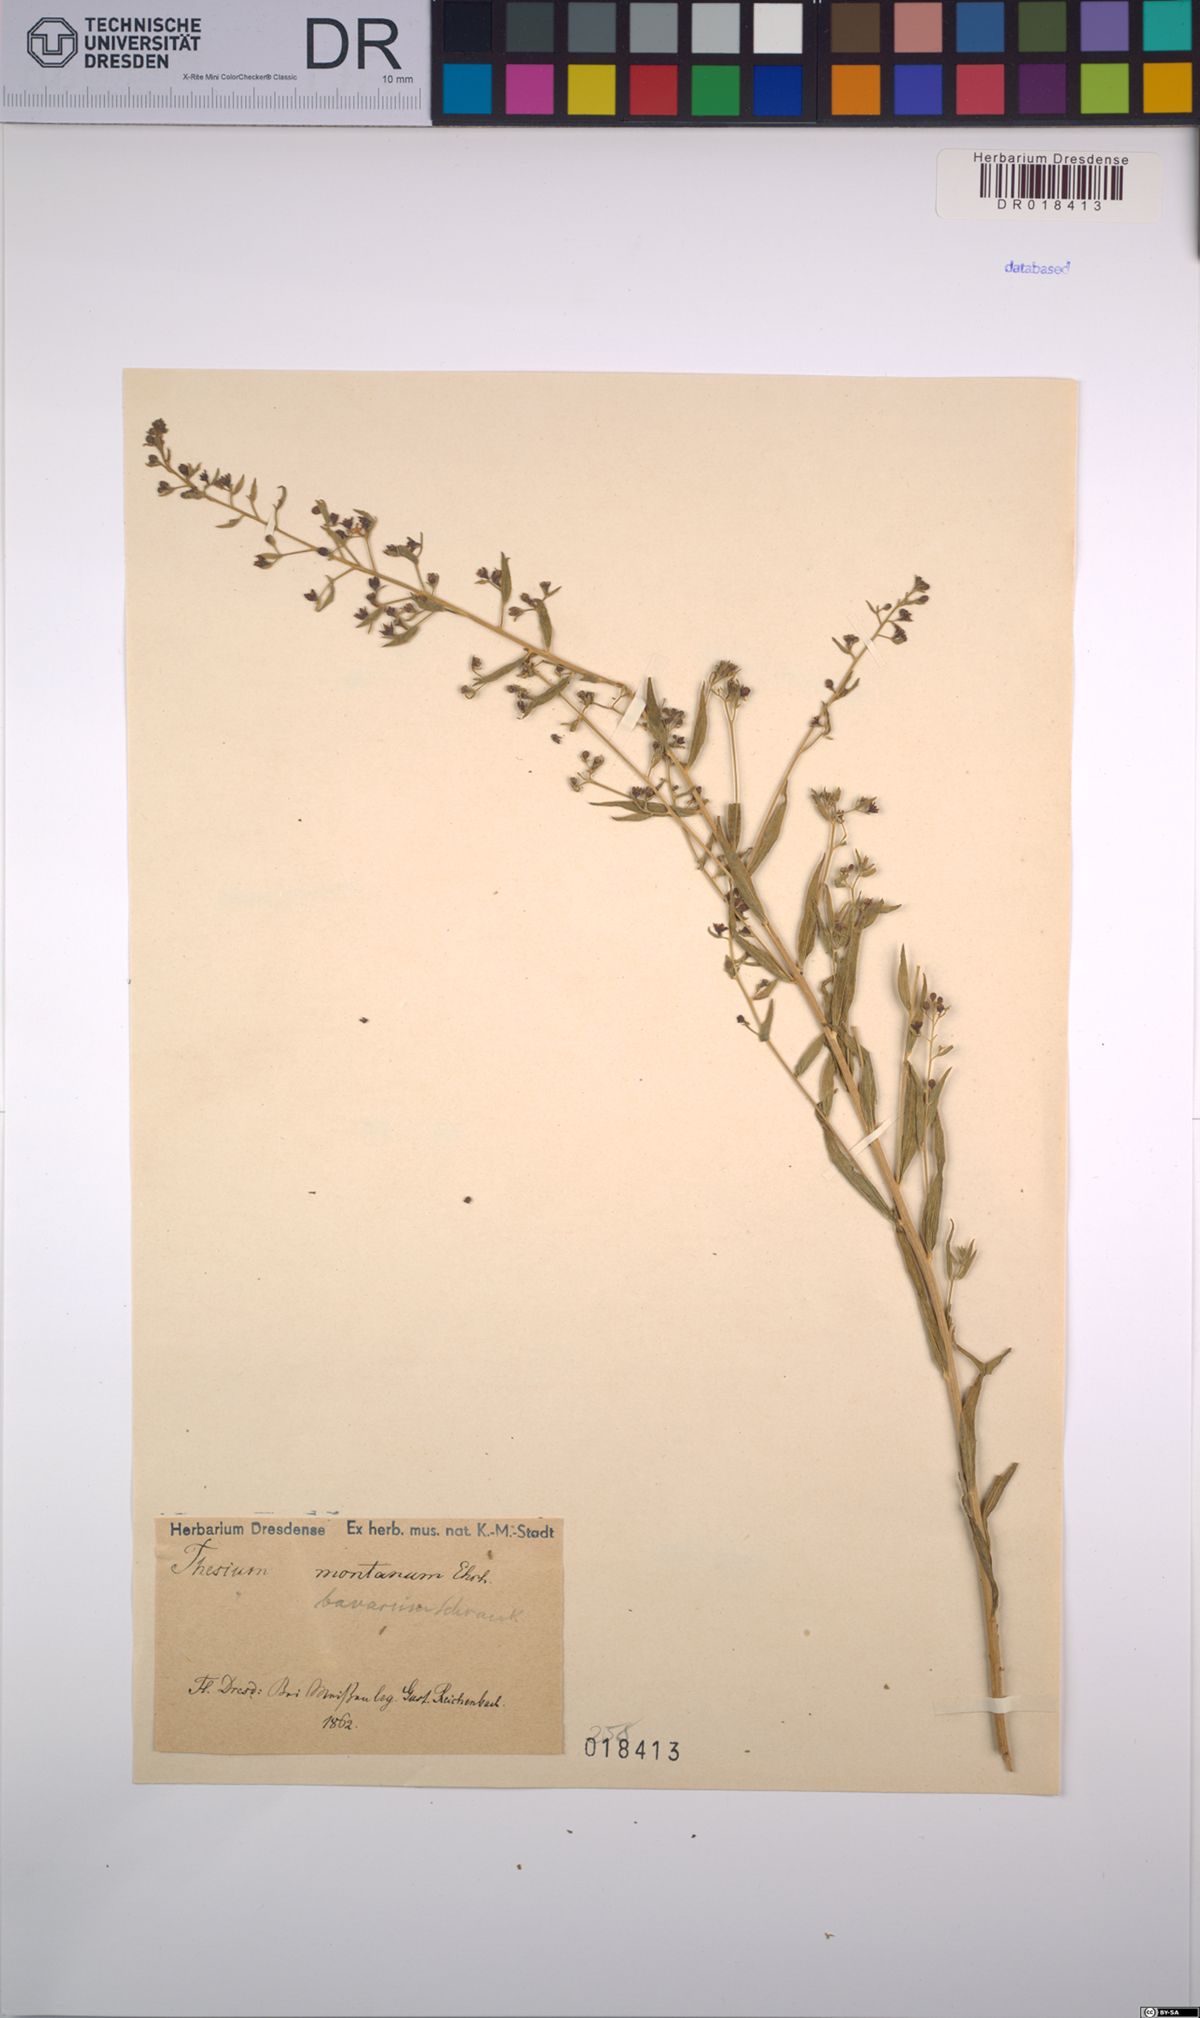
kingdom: Plantae
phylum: Tracheophyta
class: Magnoliopsida
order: Santalales
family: Thesiaceae
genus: Thesium
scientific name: Thesium bavarum
